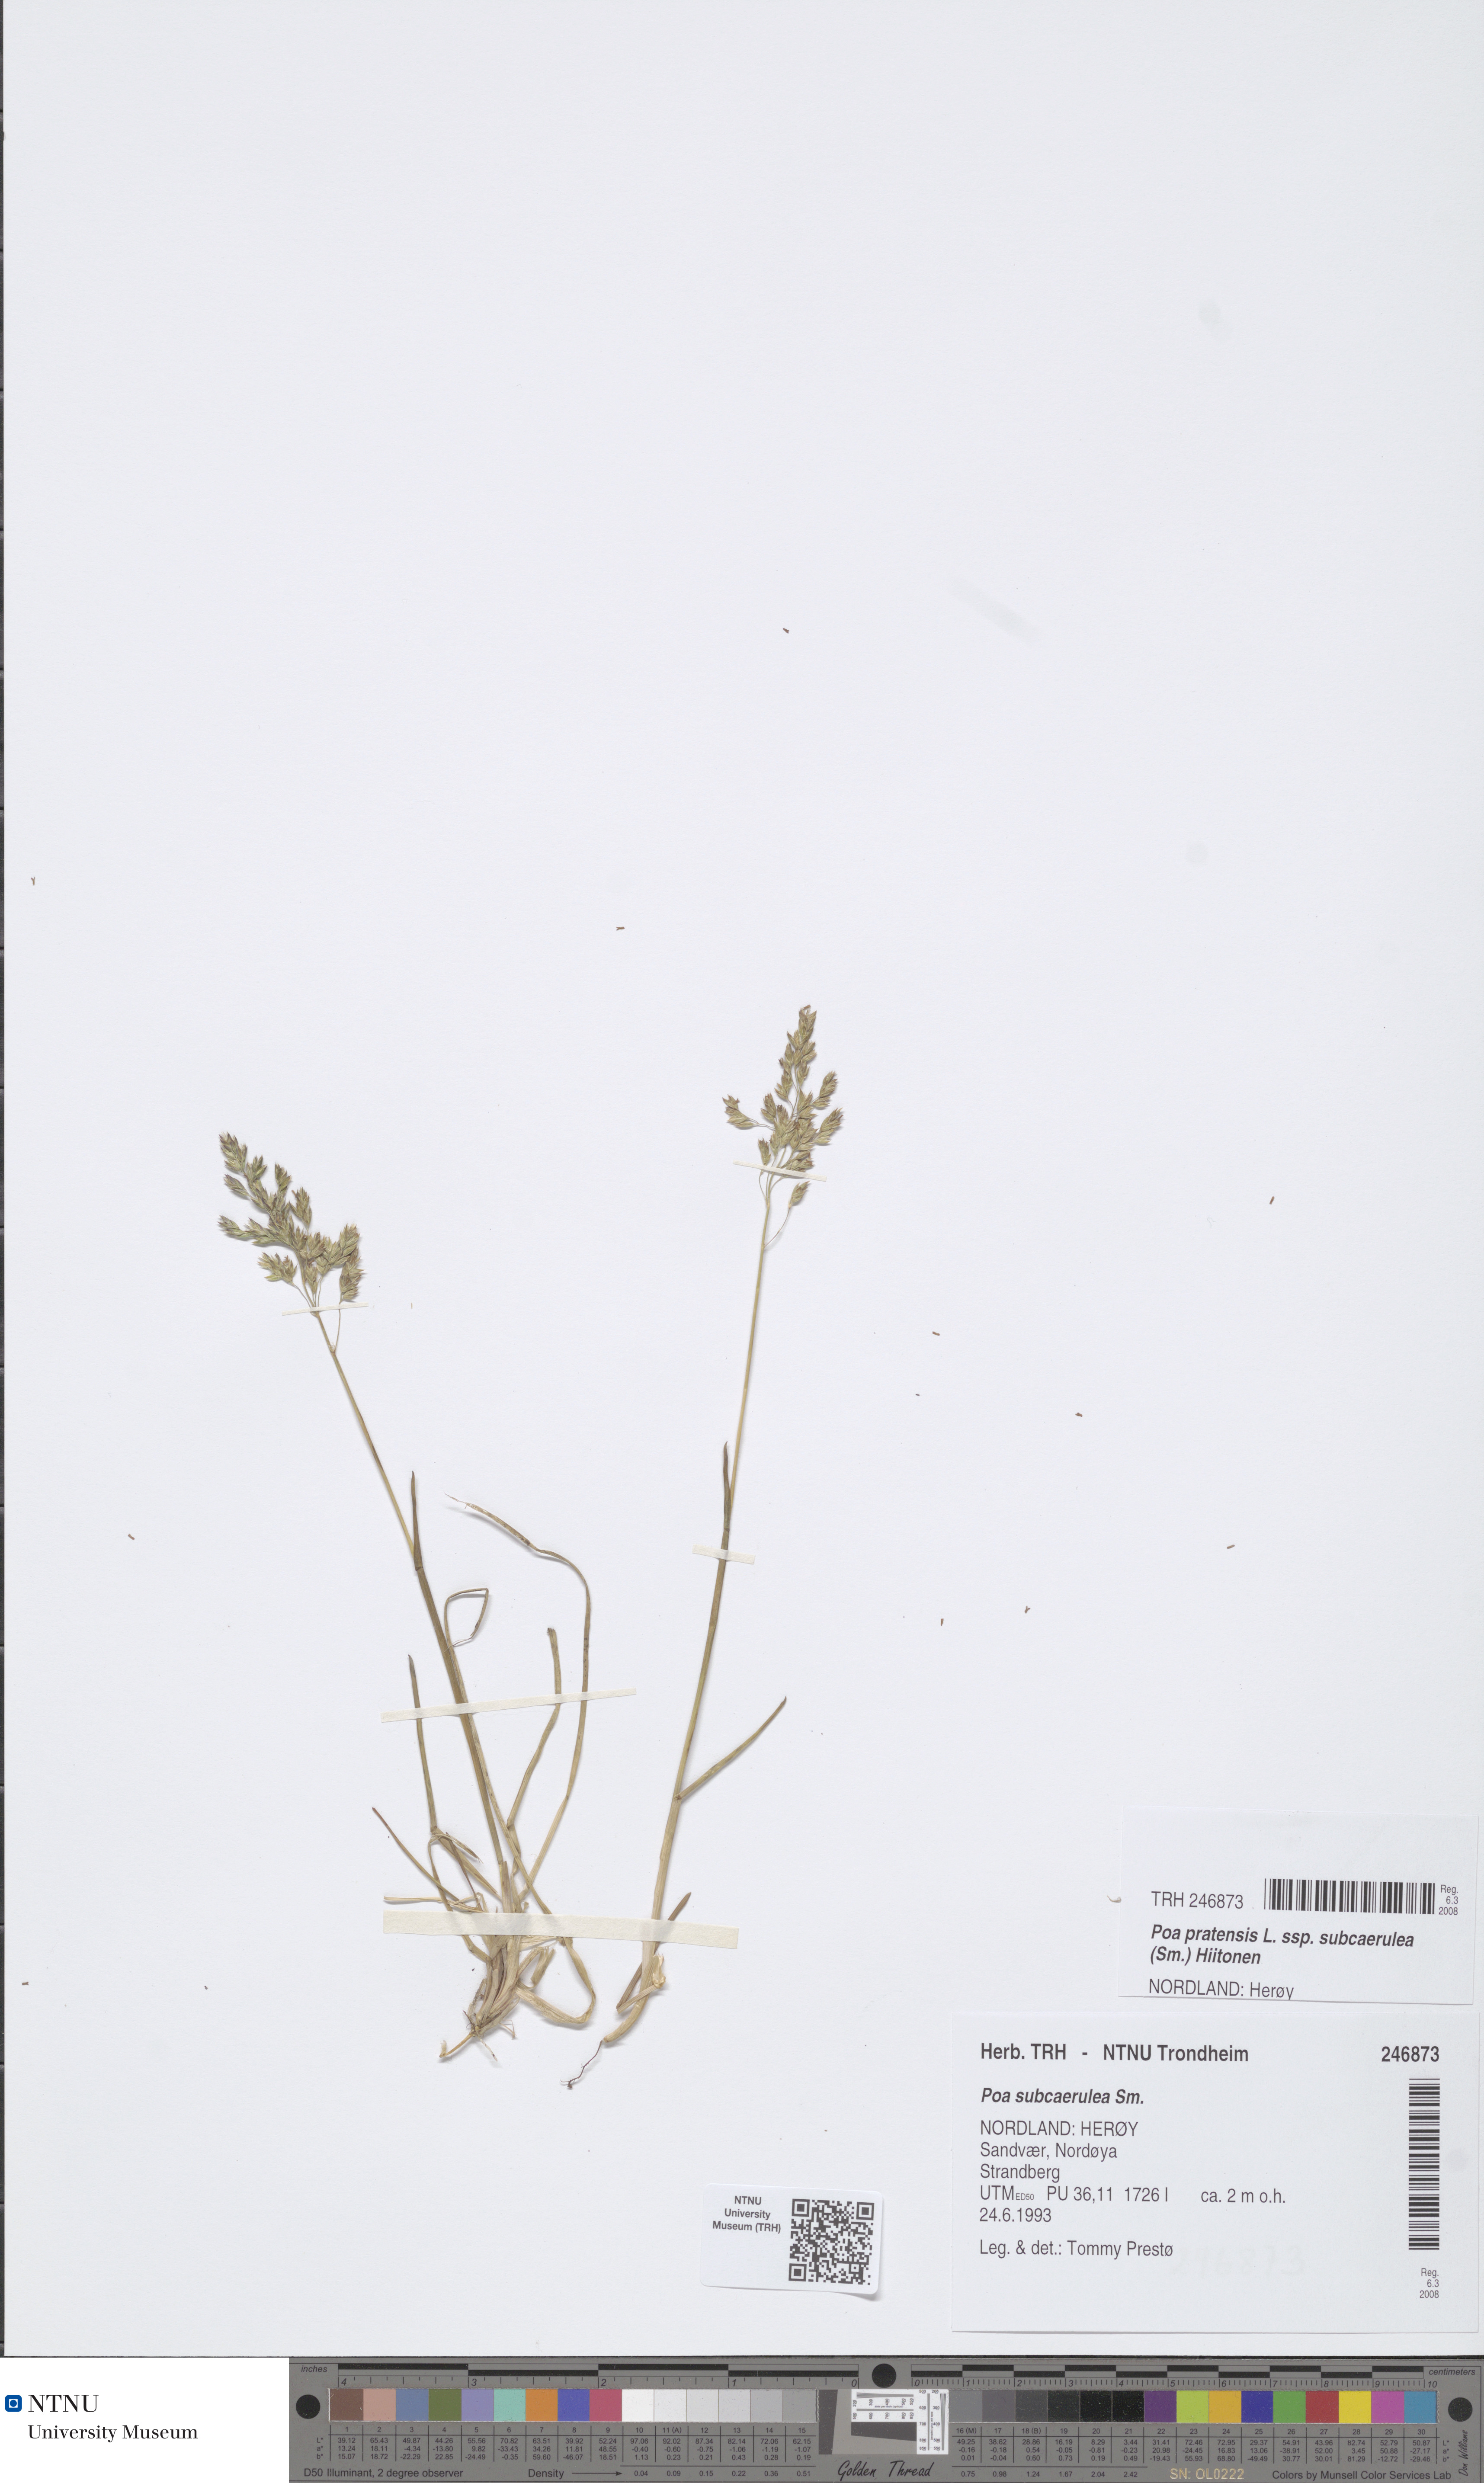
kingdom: Plantae
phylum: Tracheophyta
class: Liliopsida
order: Poales
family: Poaceae
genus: Poa
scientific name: Poa humilis
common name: Spreading meadow-grass
